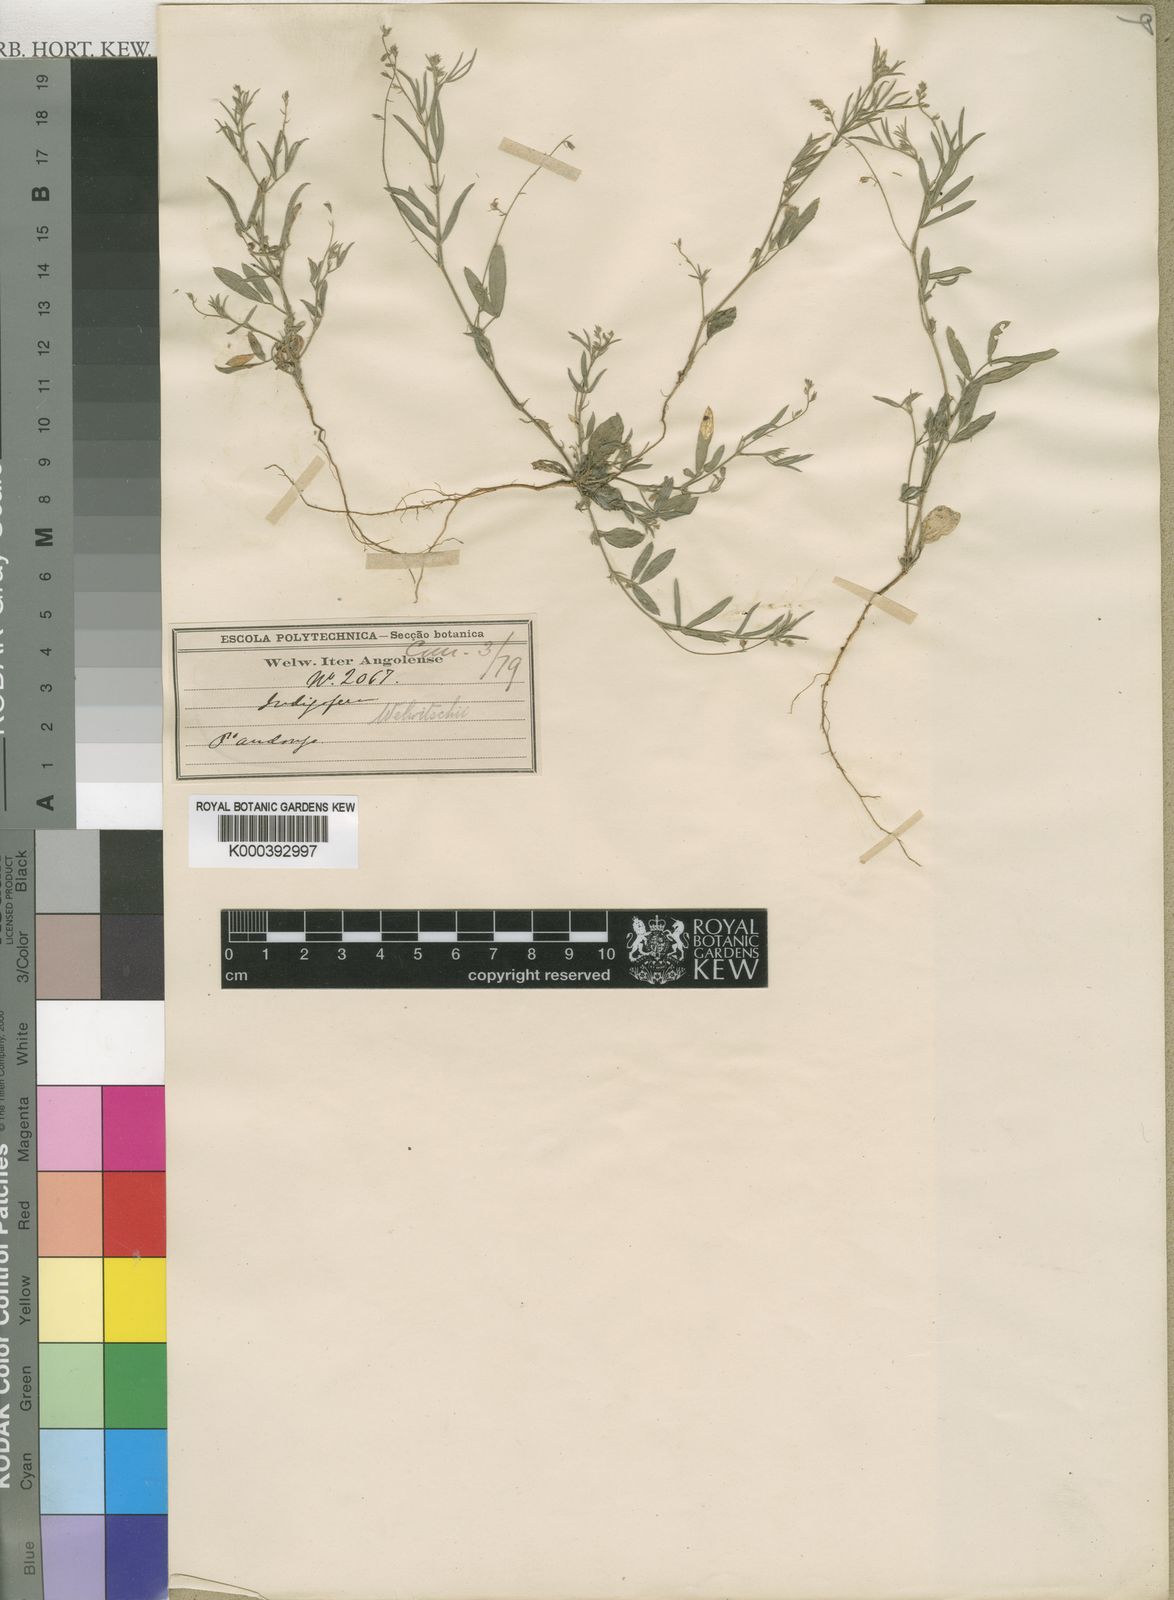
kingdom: Plantae
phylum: Tracheophyta
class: Magnoliopsida
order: Fabales
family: Fabaceae
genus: Microcharis
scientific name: Microcharis welwitschii
